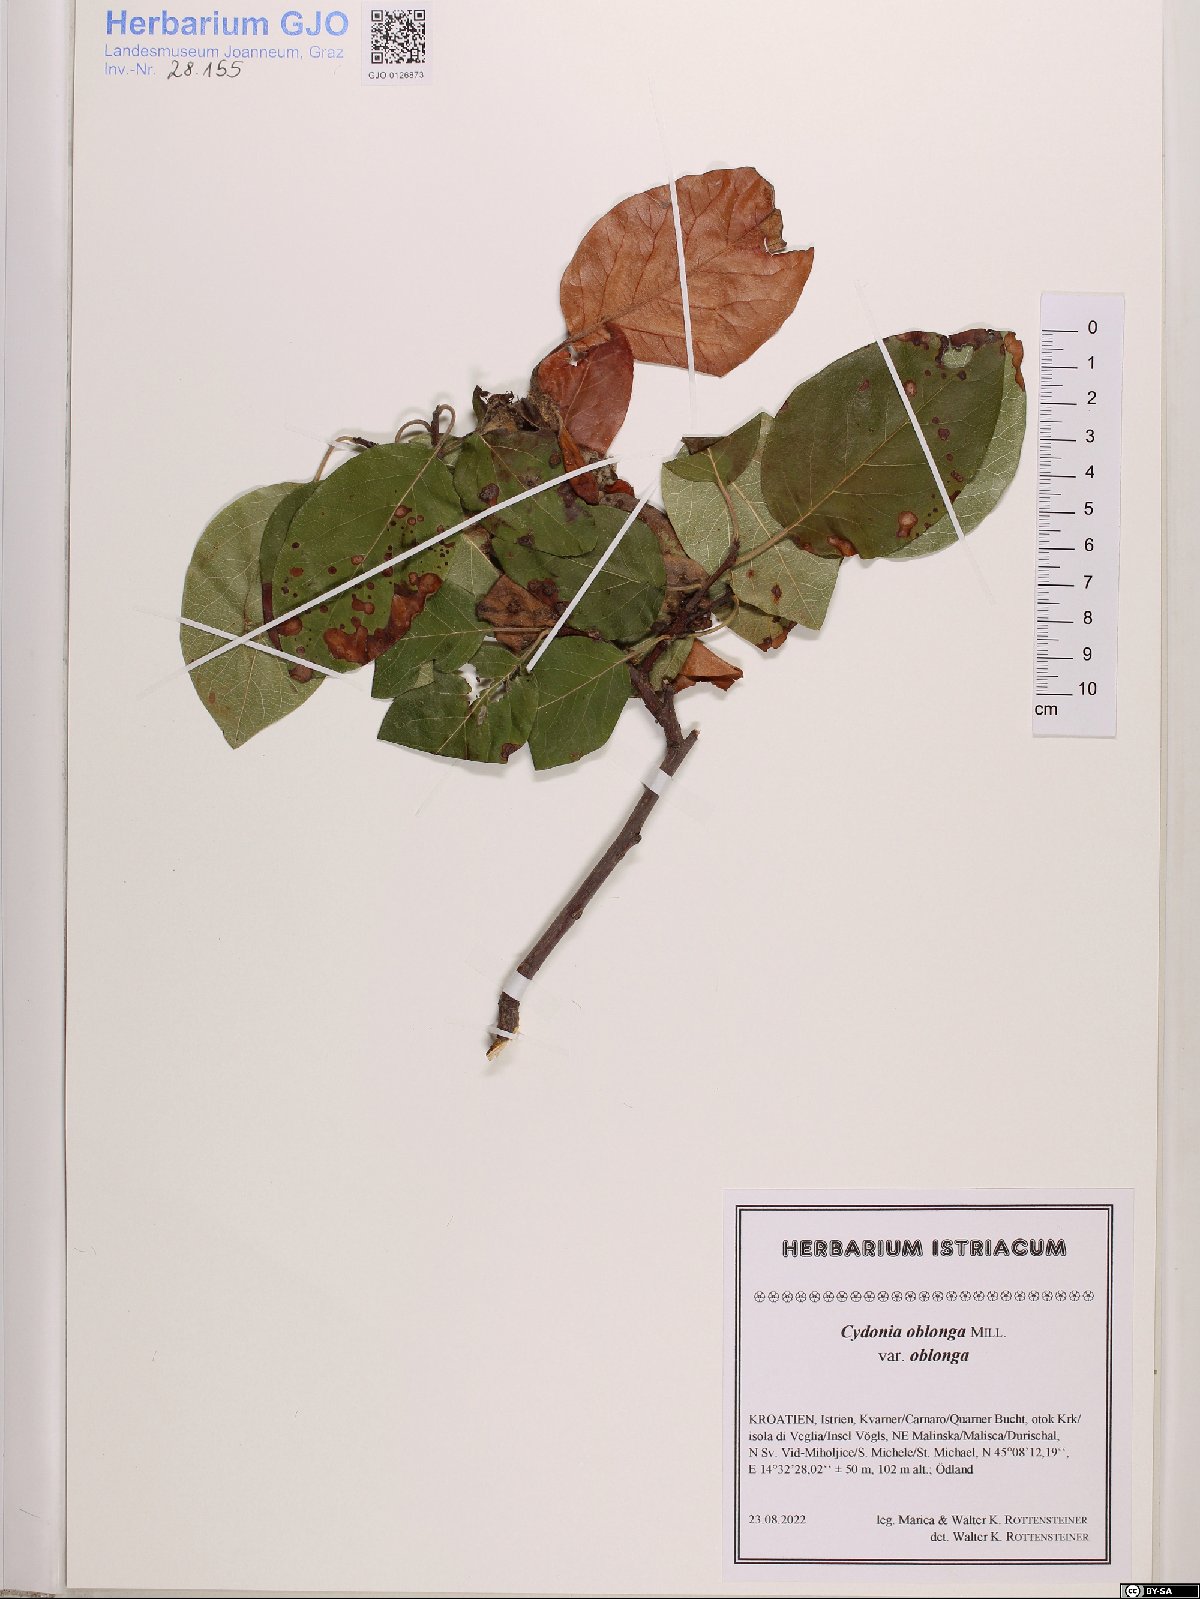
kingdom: Plantae
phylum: Tracheophyta
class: Magnoliopsida
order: Rosales
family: Rosaceae
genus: Cydonia
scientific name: Cydonia oblonga
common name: Quince
